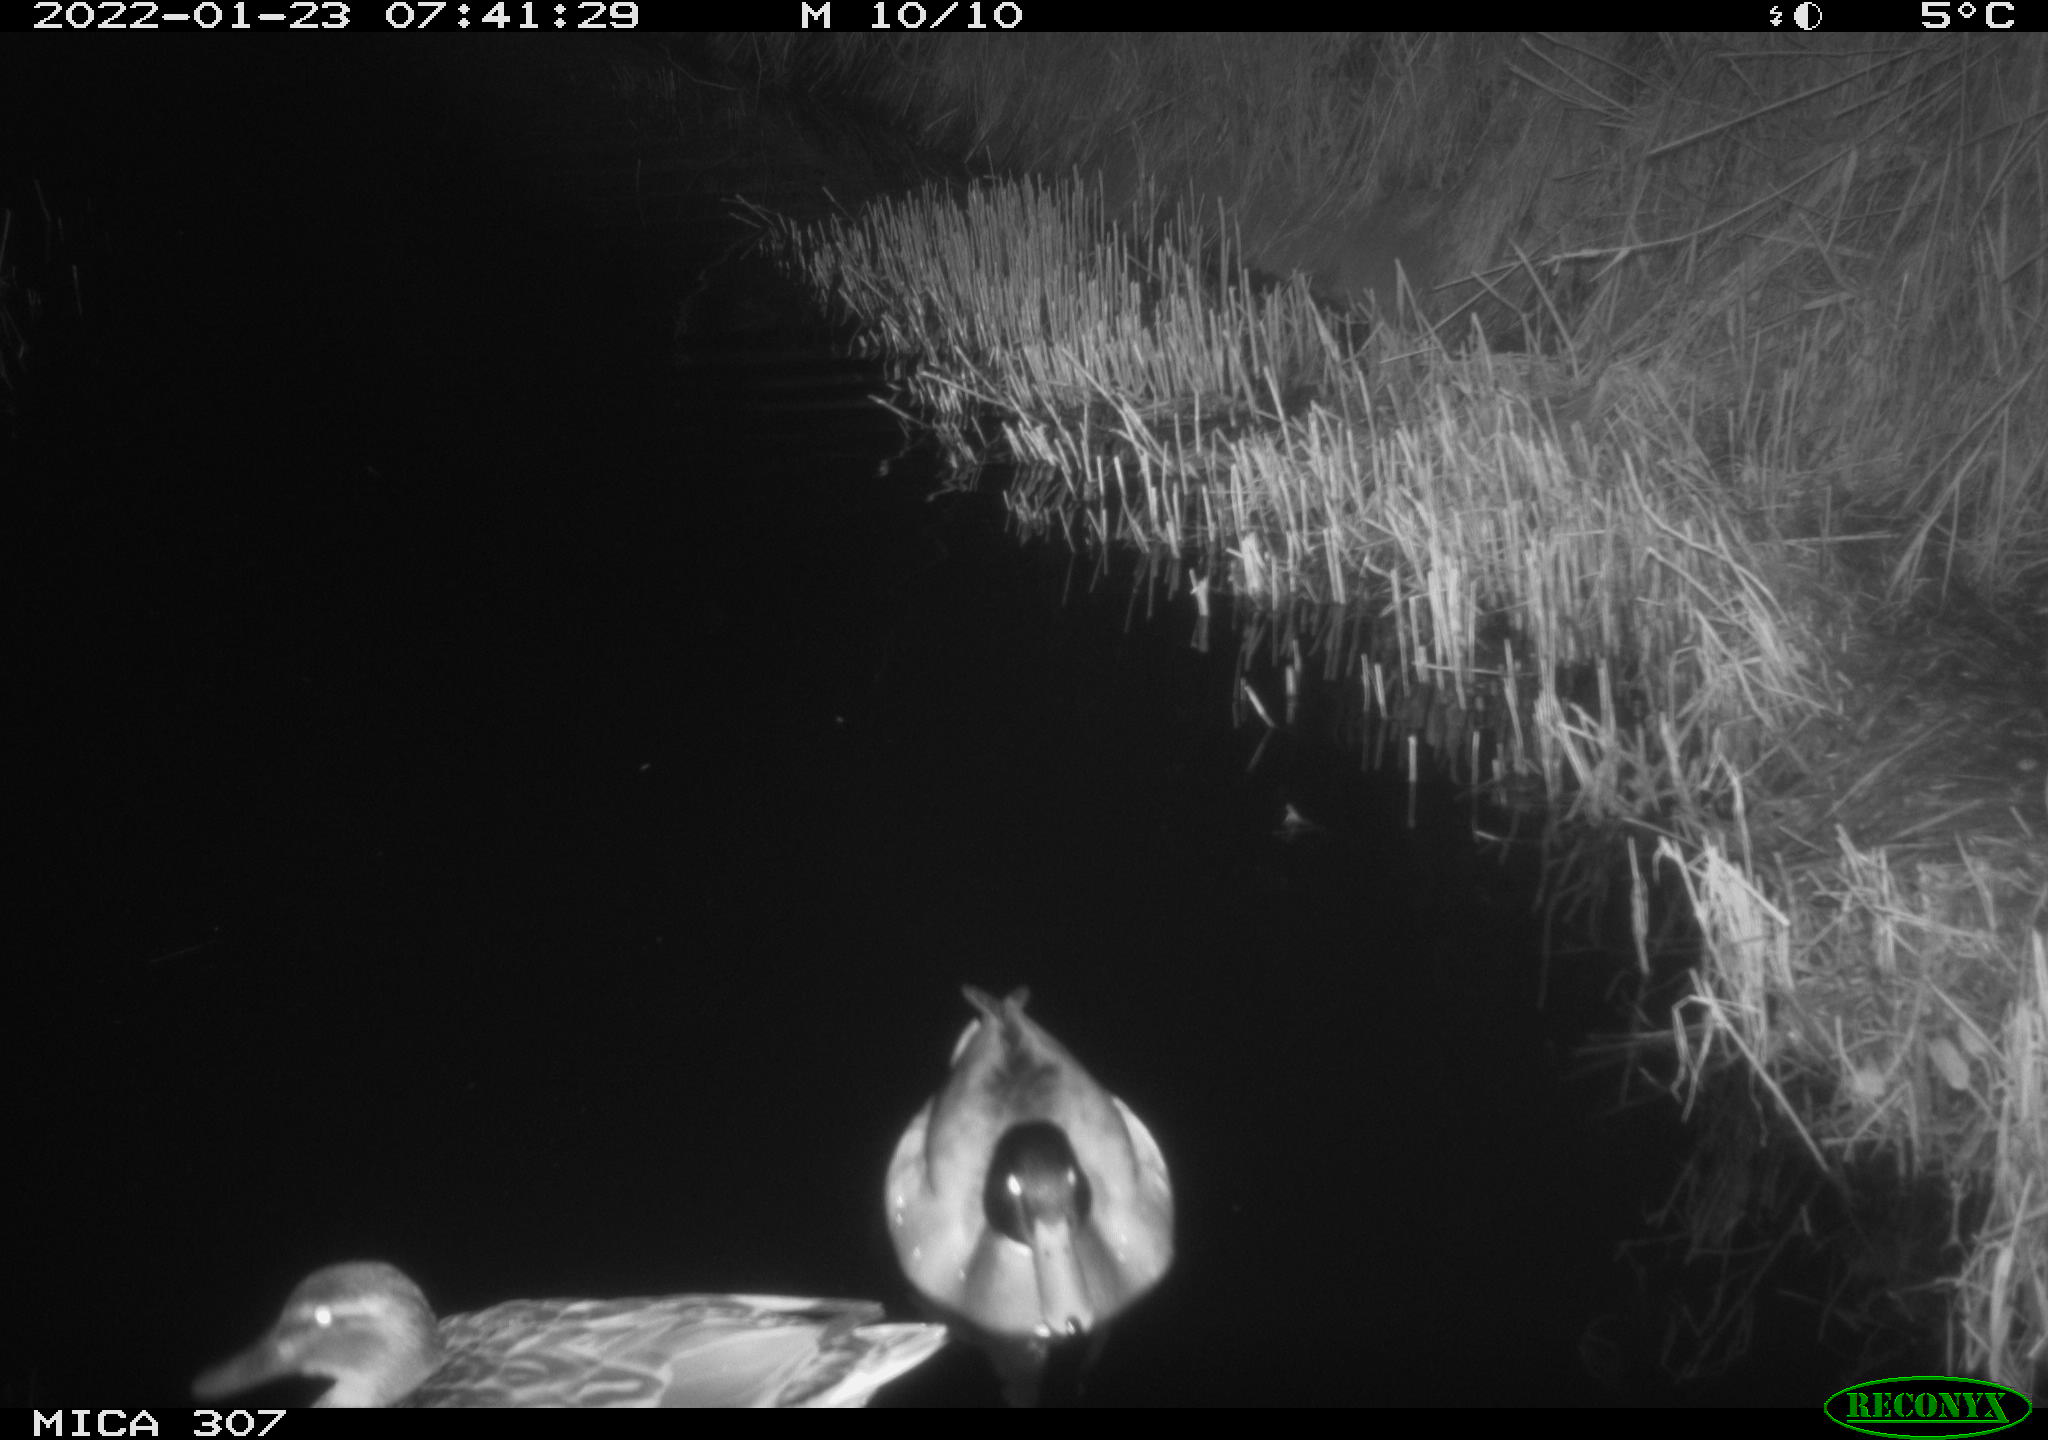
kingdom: Animalia
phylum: Chordata
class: Aves
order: Anseriformes
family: Anatidae
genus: Anas
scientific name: Anas
